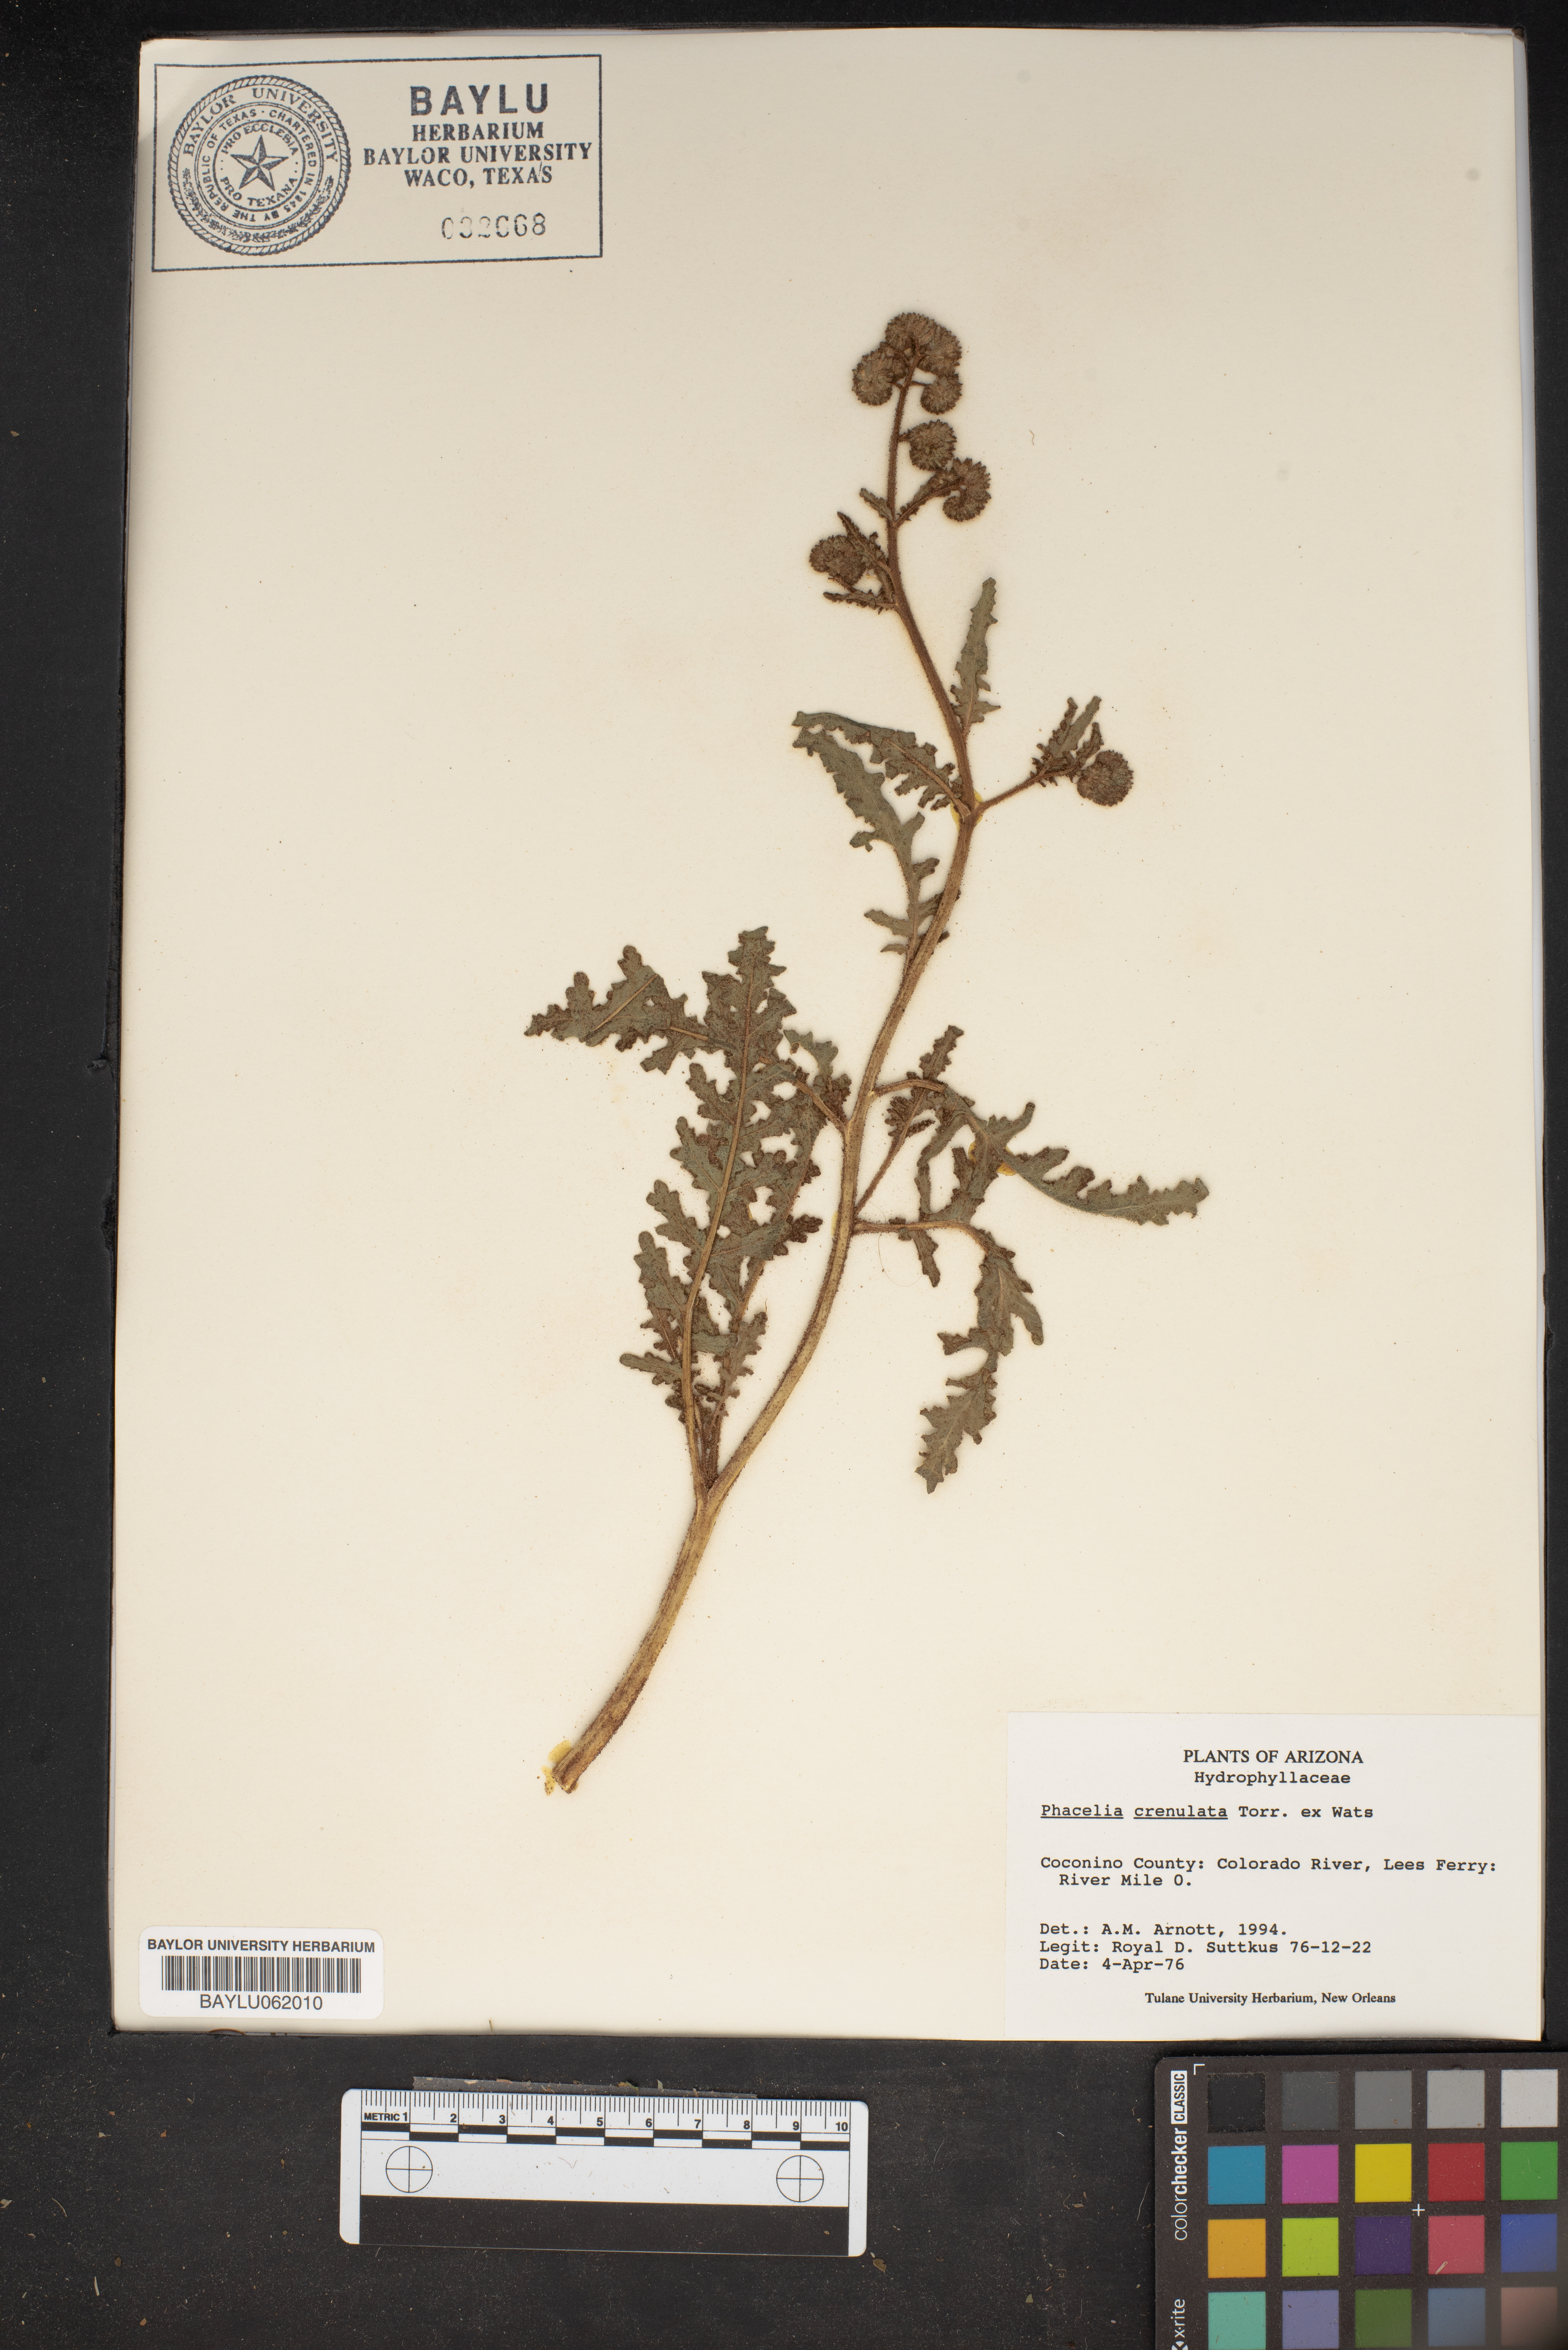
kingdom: Plantae
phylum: Tracheophyta
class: Magnoliopsida
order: Boraginales
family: Hydrophyllaceae
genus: Phacelia
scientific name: Phacelia crenulata
